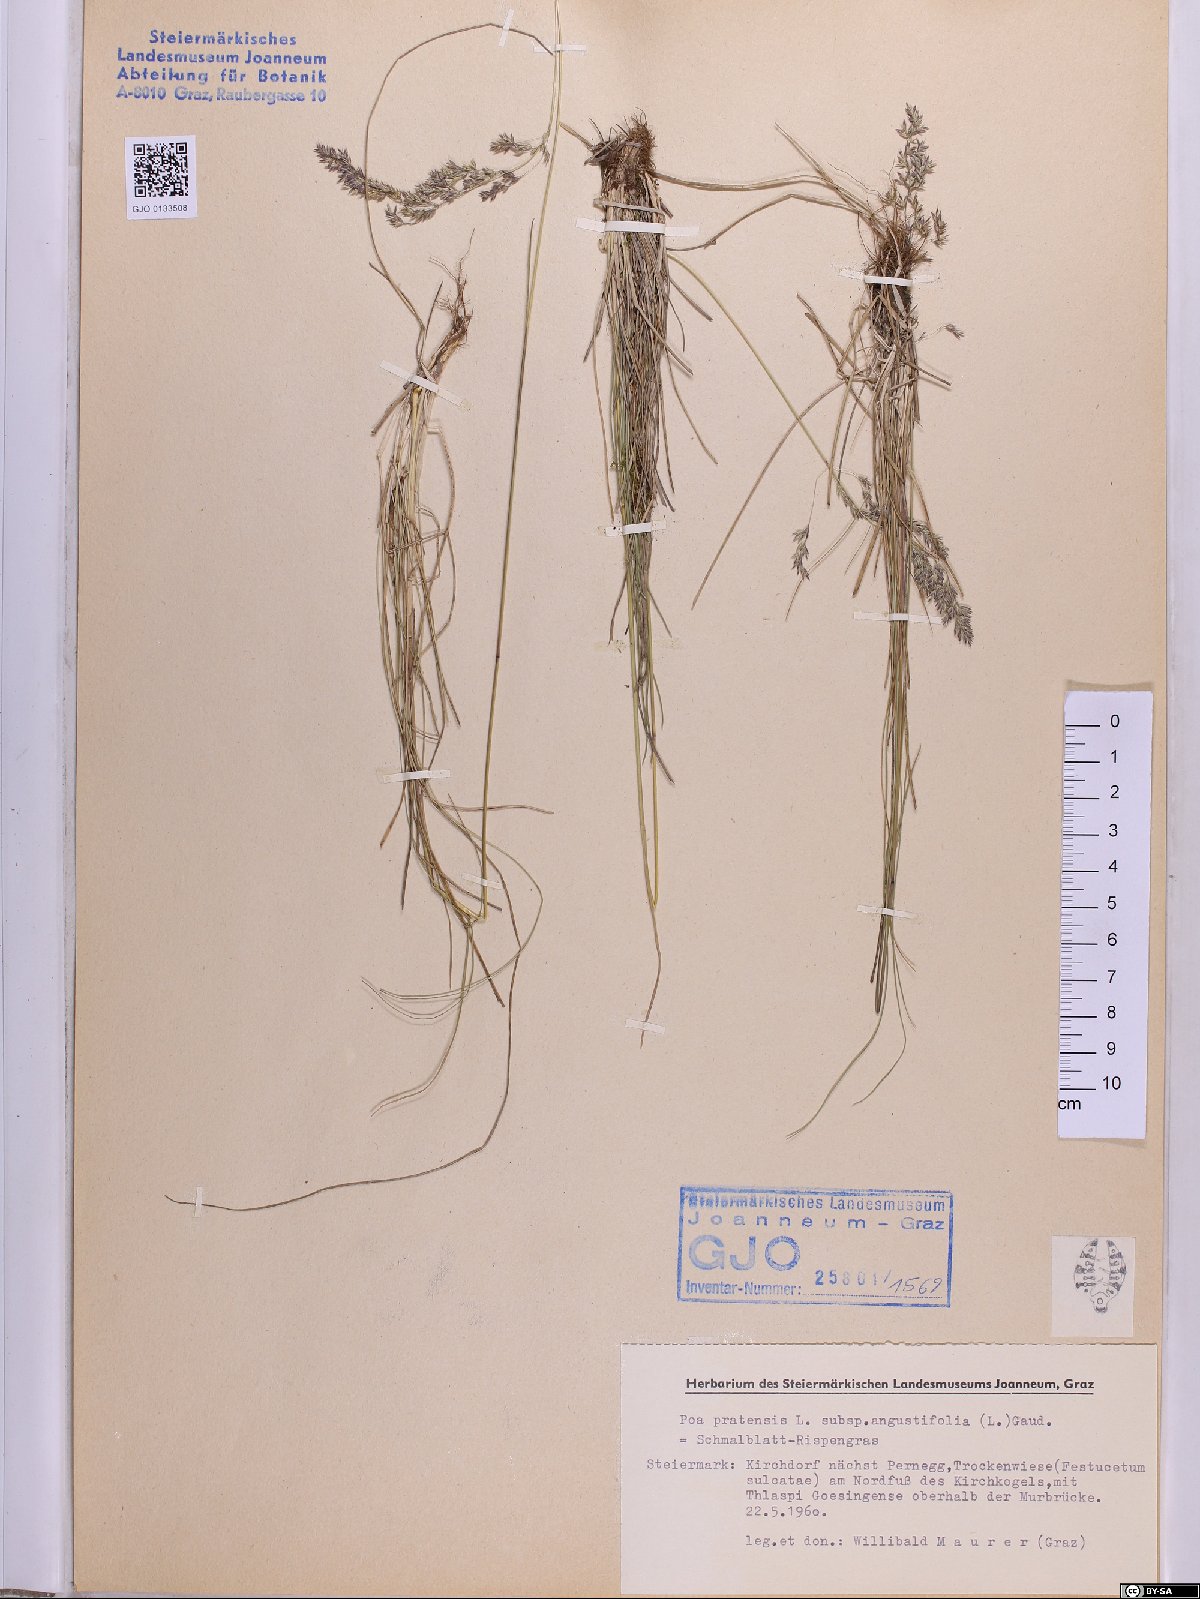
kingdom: Plantae
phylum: Tracheophyta
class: Liliopsida
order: Poales
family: Poaceae
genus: Poa
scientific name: Poa angustifolia
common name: Narrow-leaved meadow-grass
